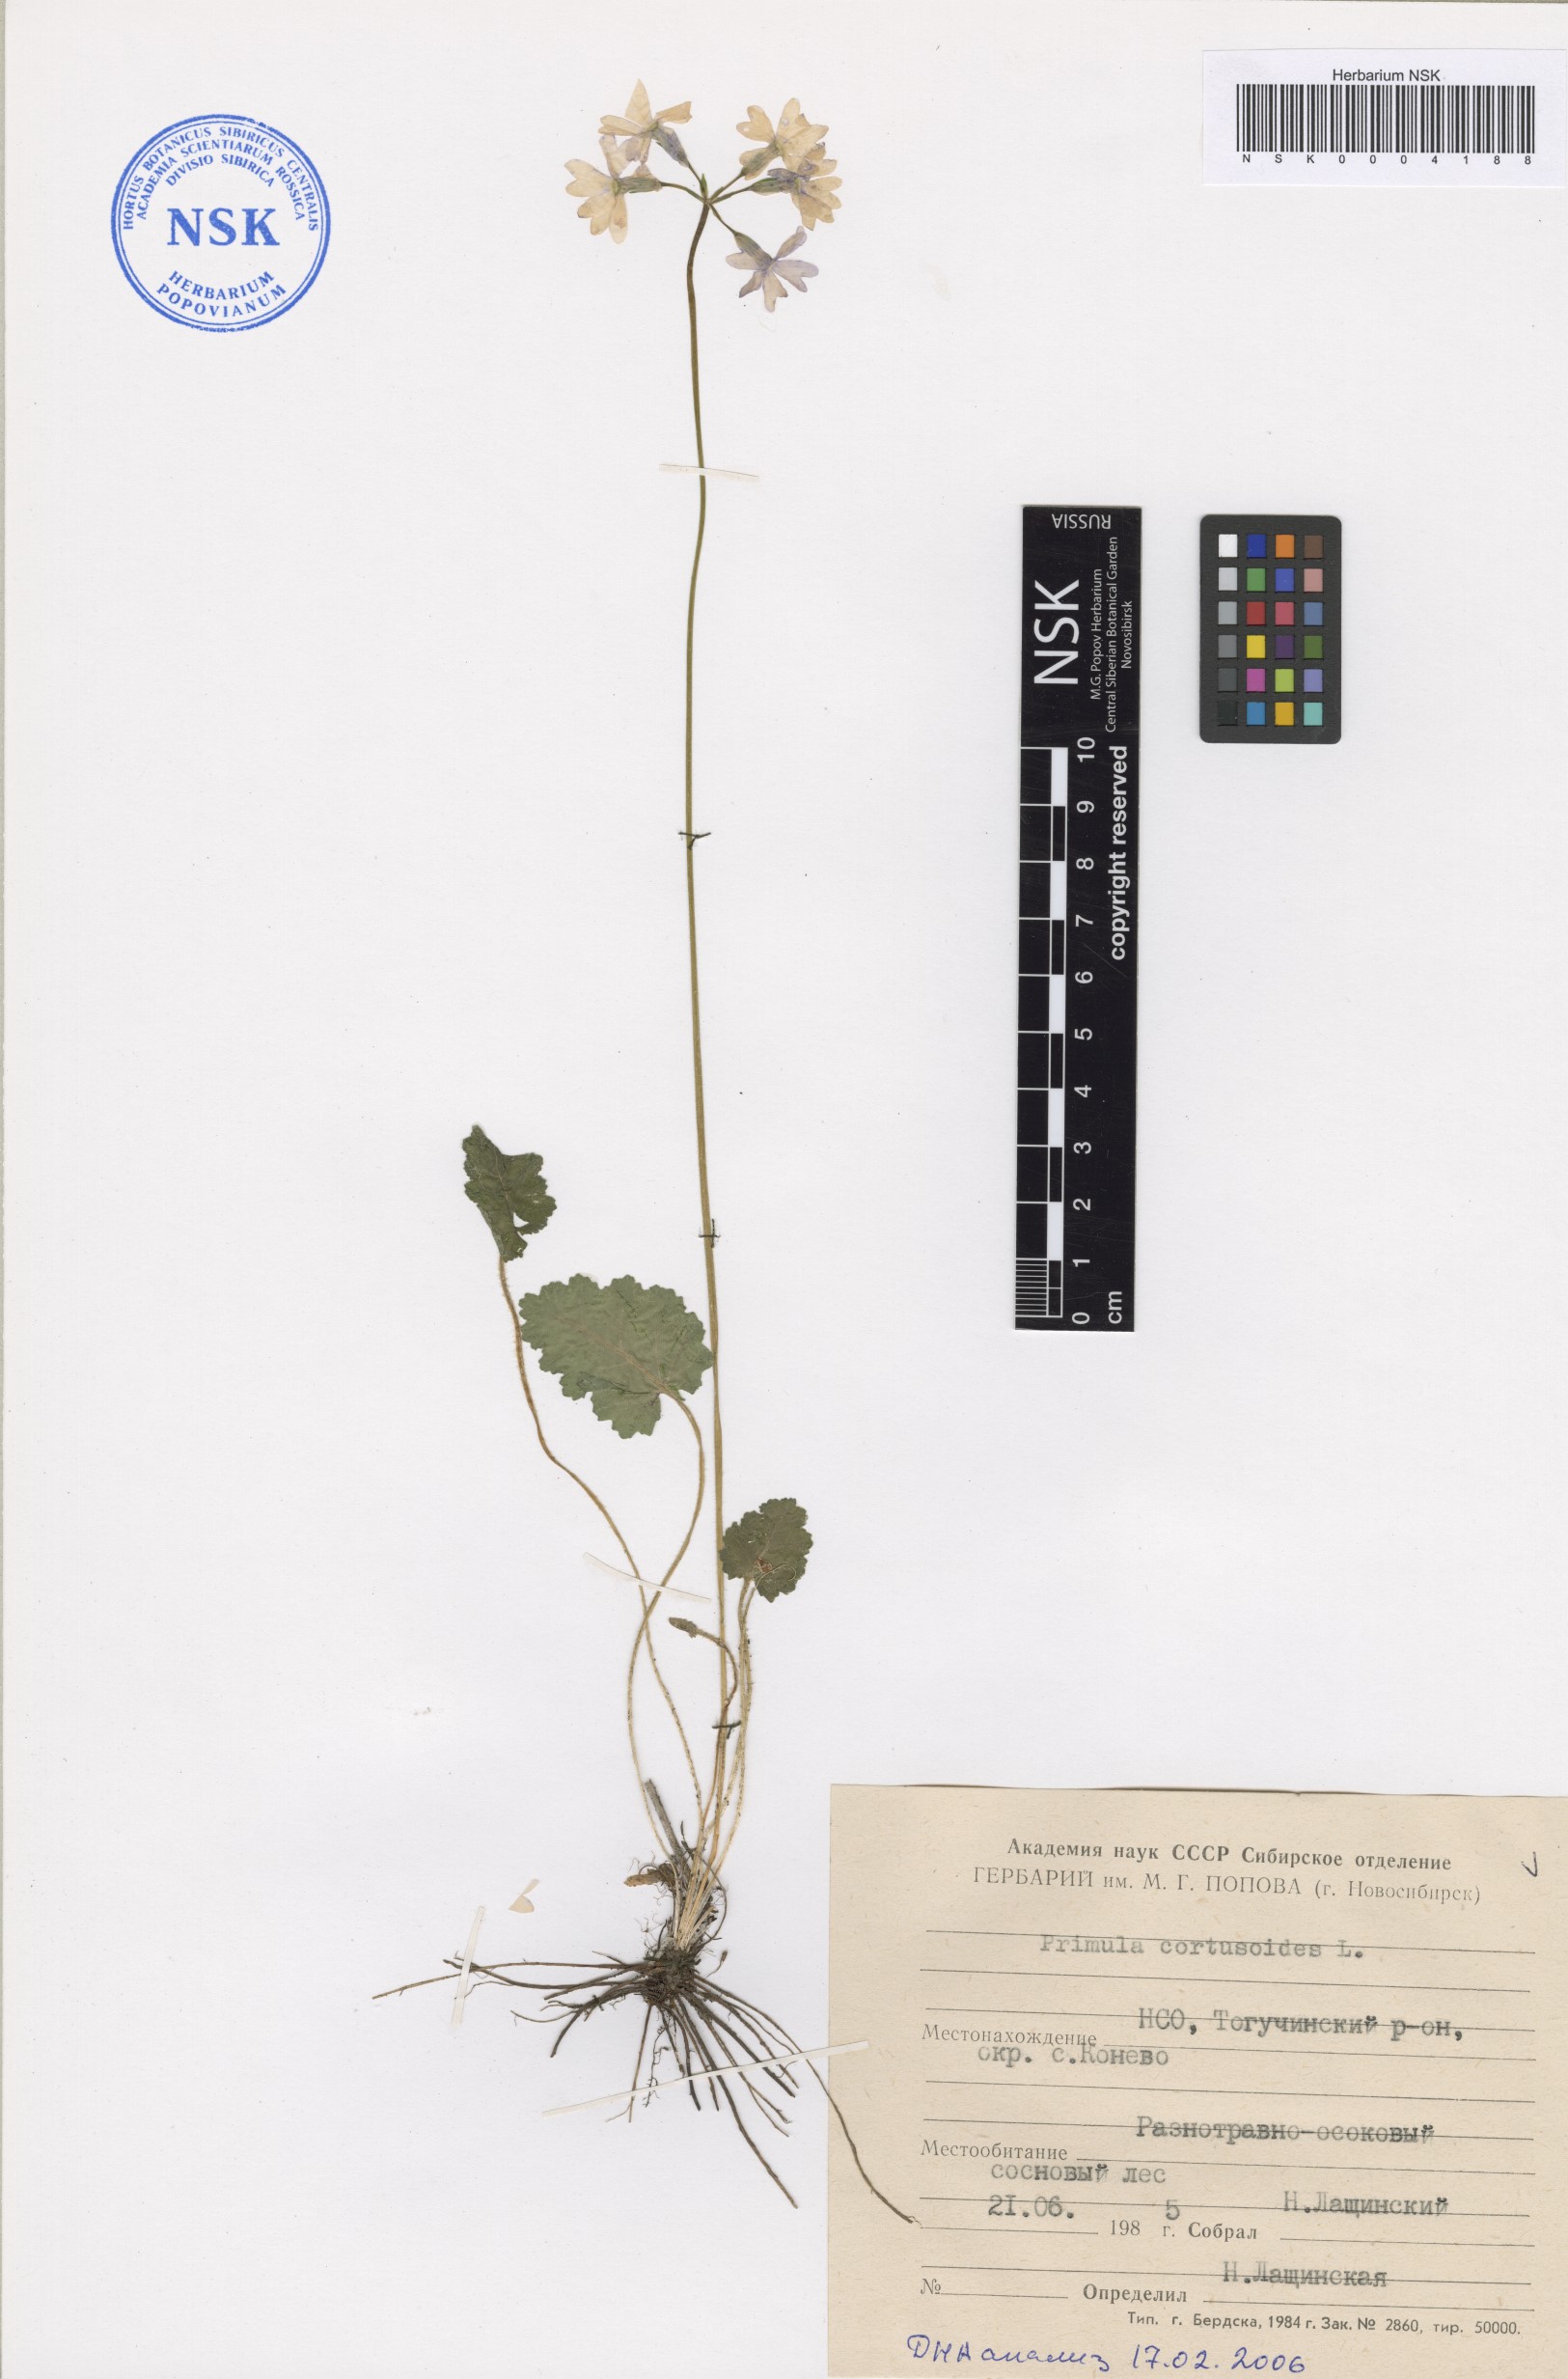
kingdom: Plantae
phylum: Tracheophyta
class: Magnoliopsida
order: Ericales
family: Primulaceae
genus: Primula
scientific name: Primula cortusoides
